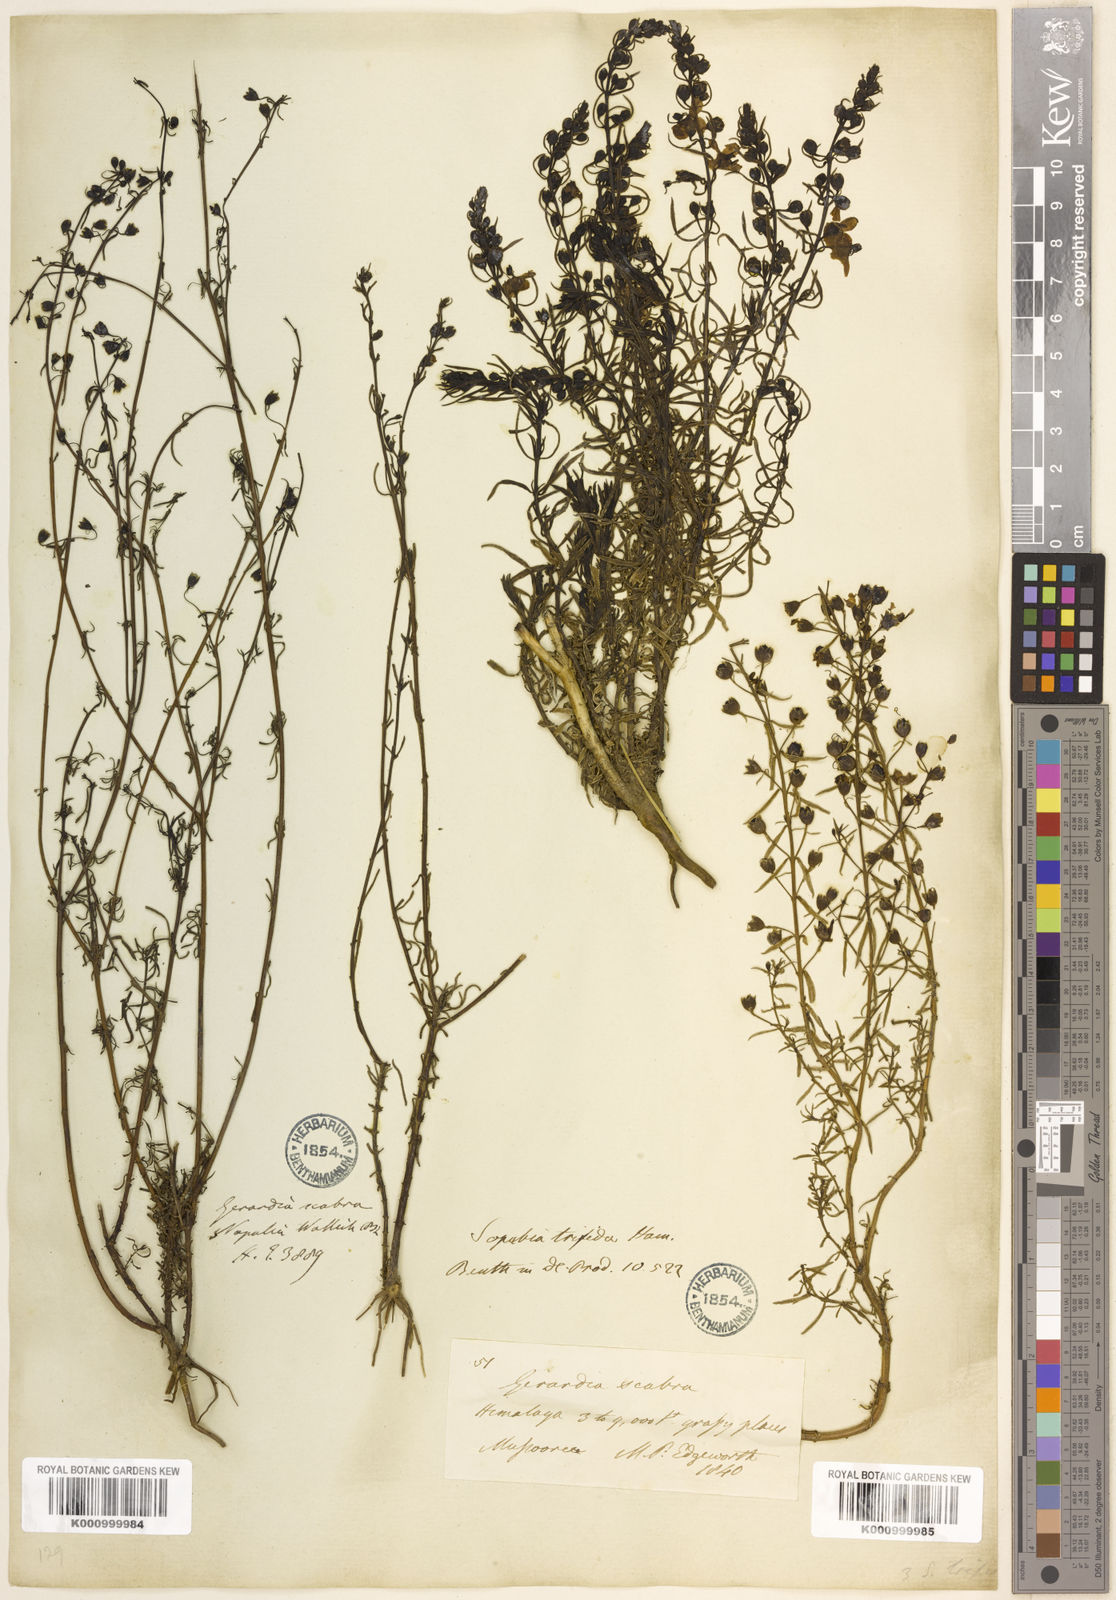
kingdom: Plantae
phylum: Tracheophyta
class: Magnoliopsida
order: Lamiales
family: Orobanchaceae
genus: Sopubia
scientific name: Sopubia trifida
